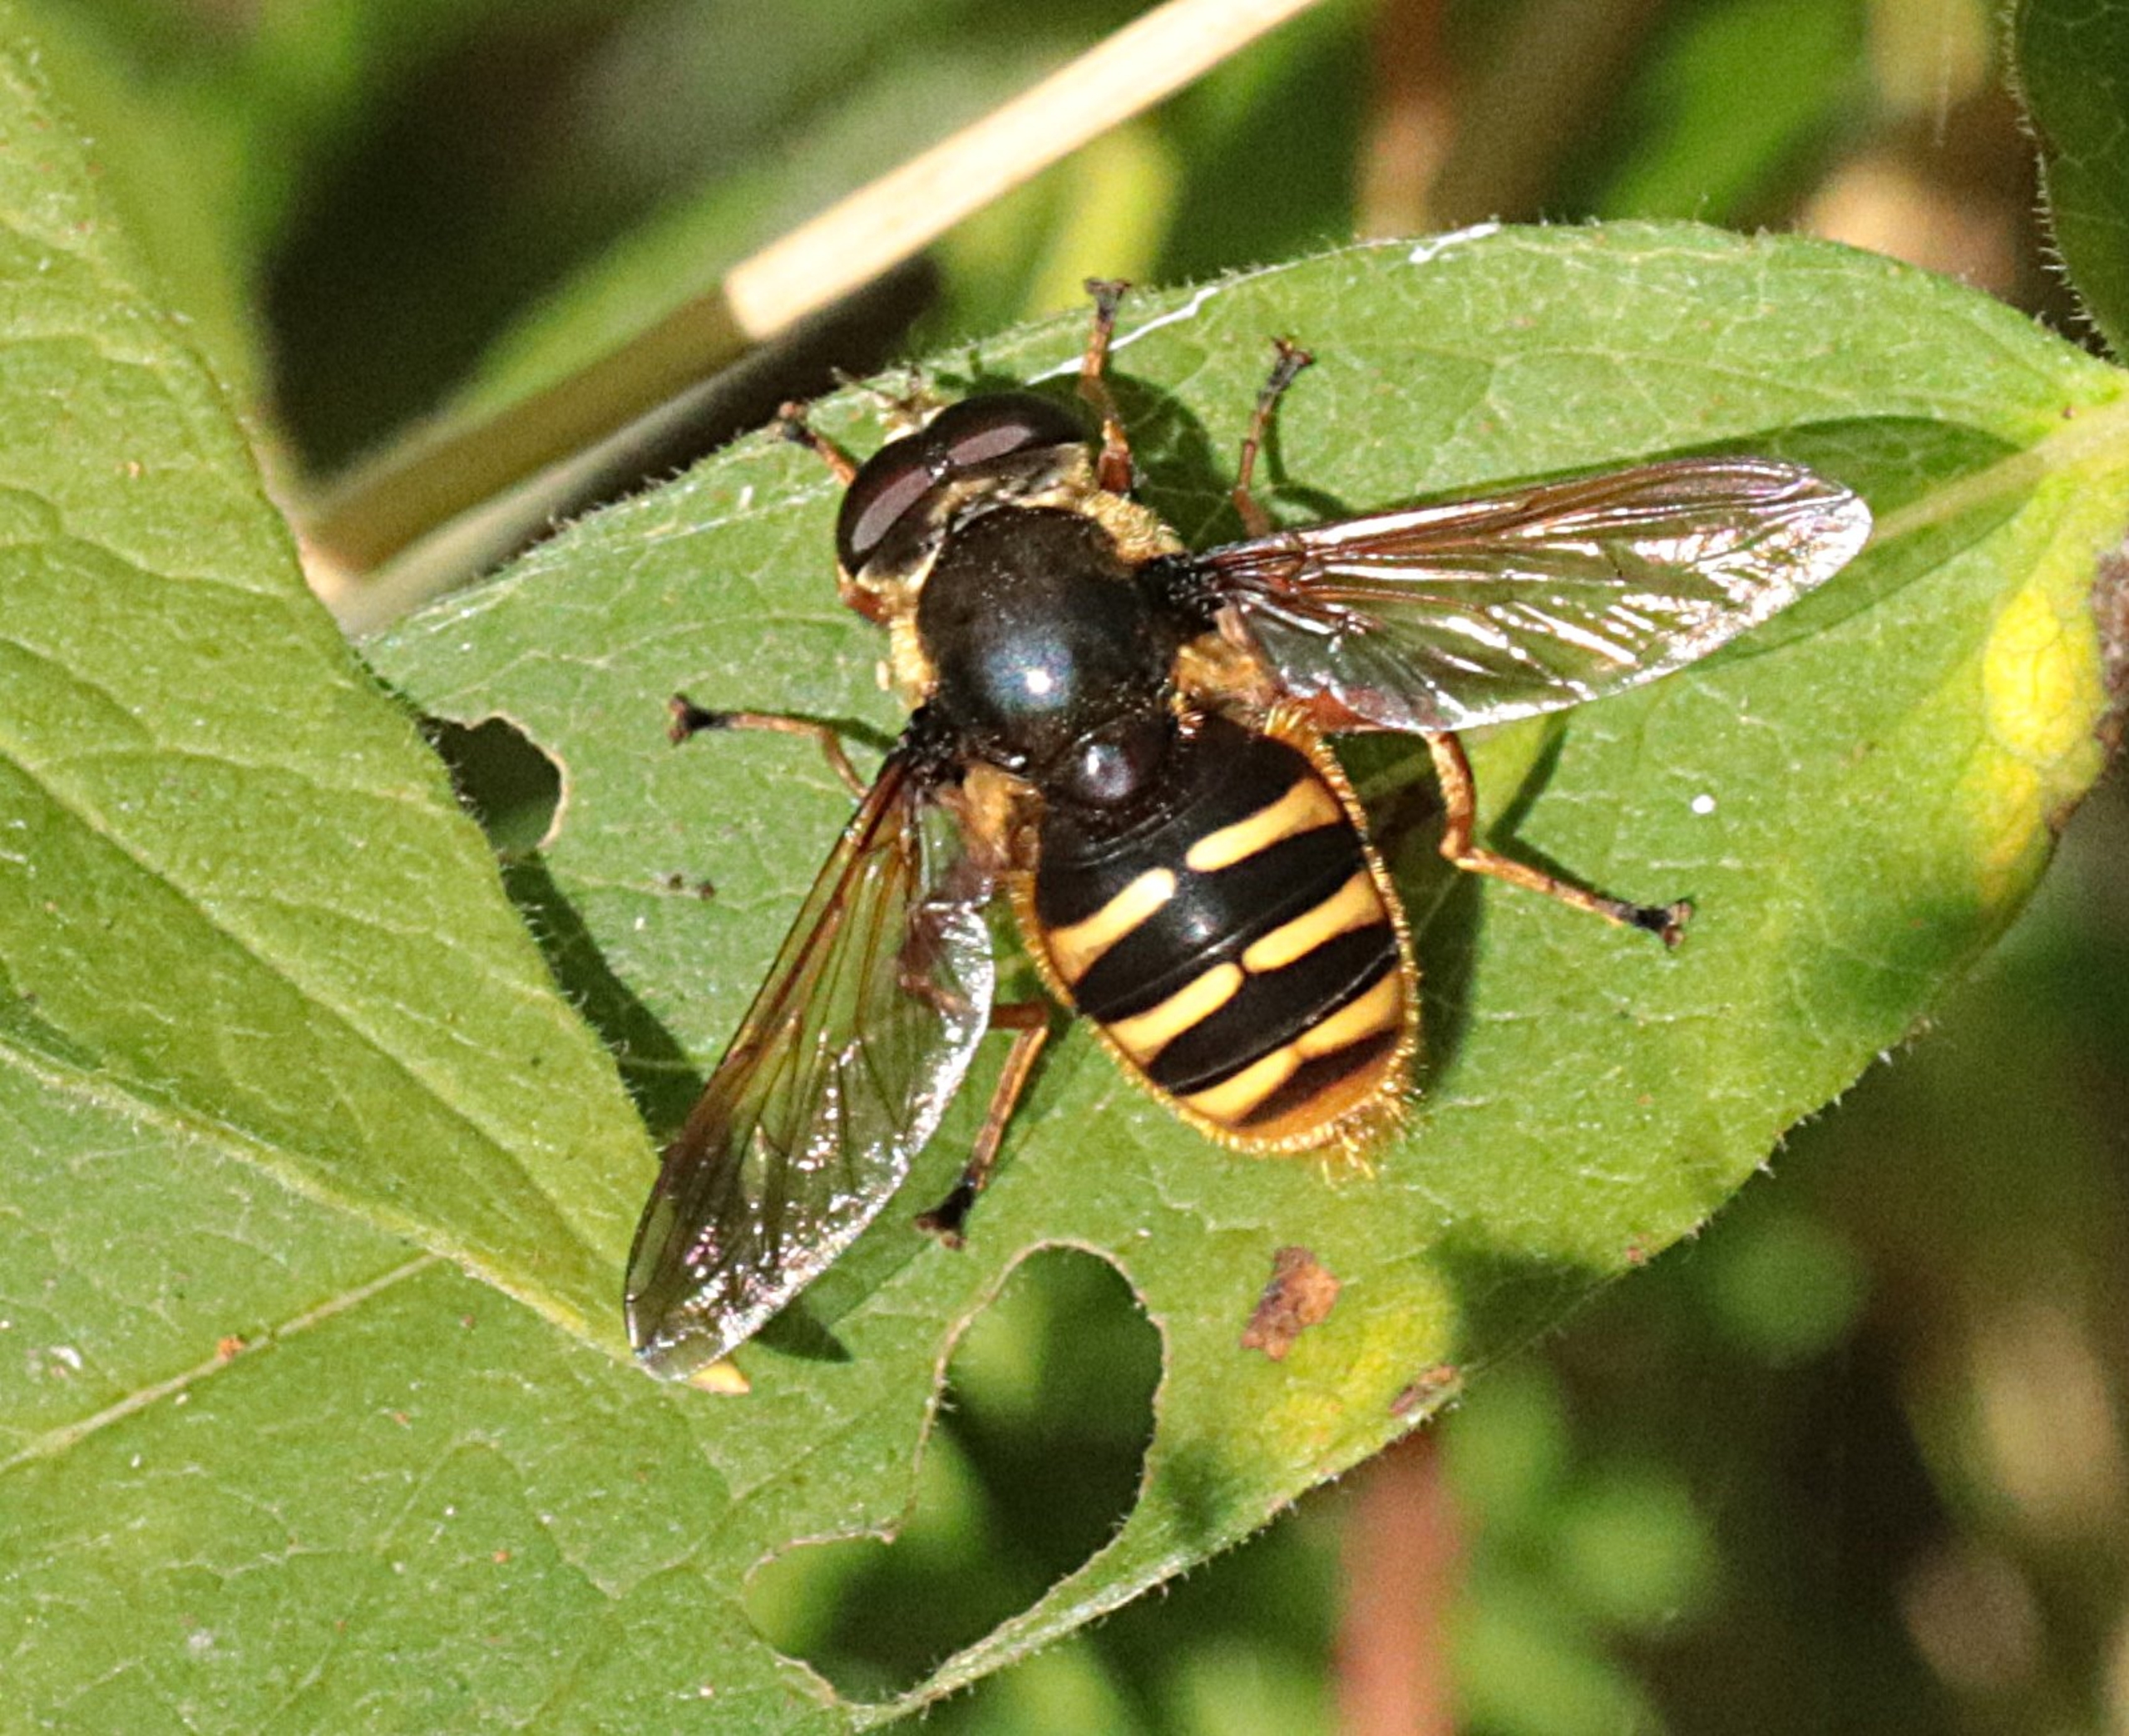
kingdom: Animalia
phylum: Arthropoda
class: Insecta
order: Diptera
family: Syrphidae
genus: Sericomyia
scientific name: Sericomyia silentis
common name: Tørve-silkesvirreflue
